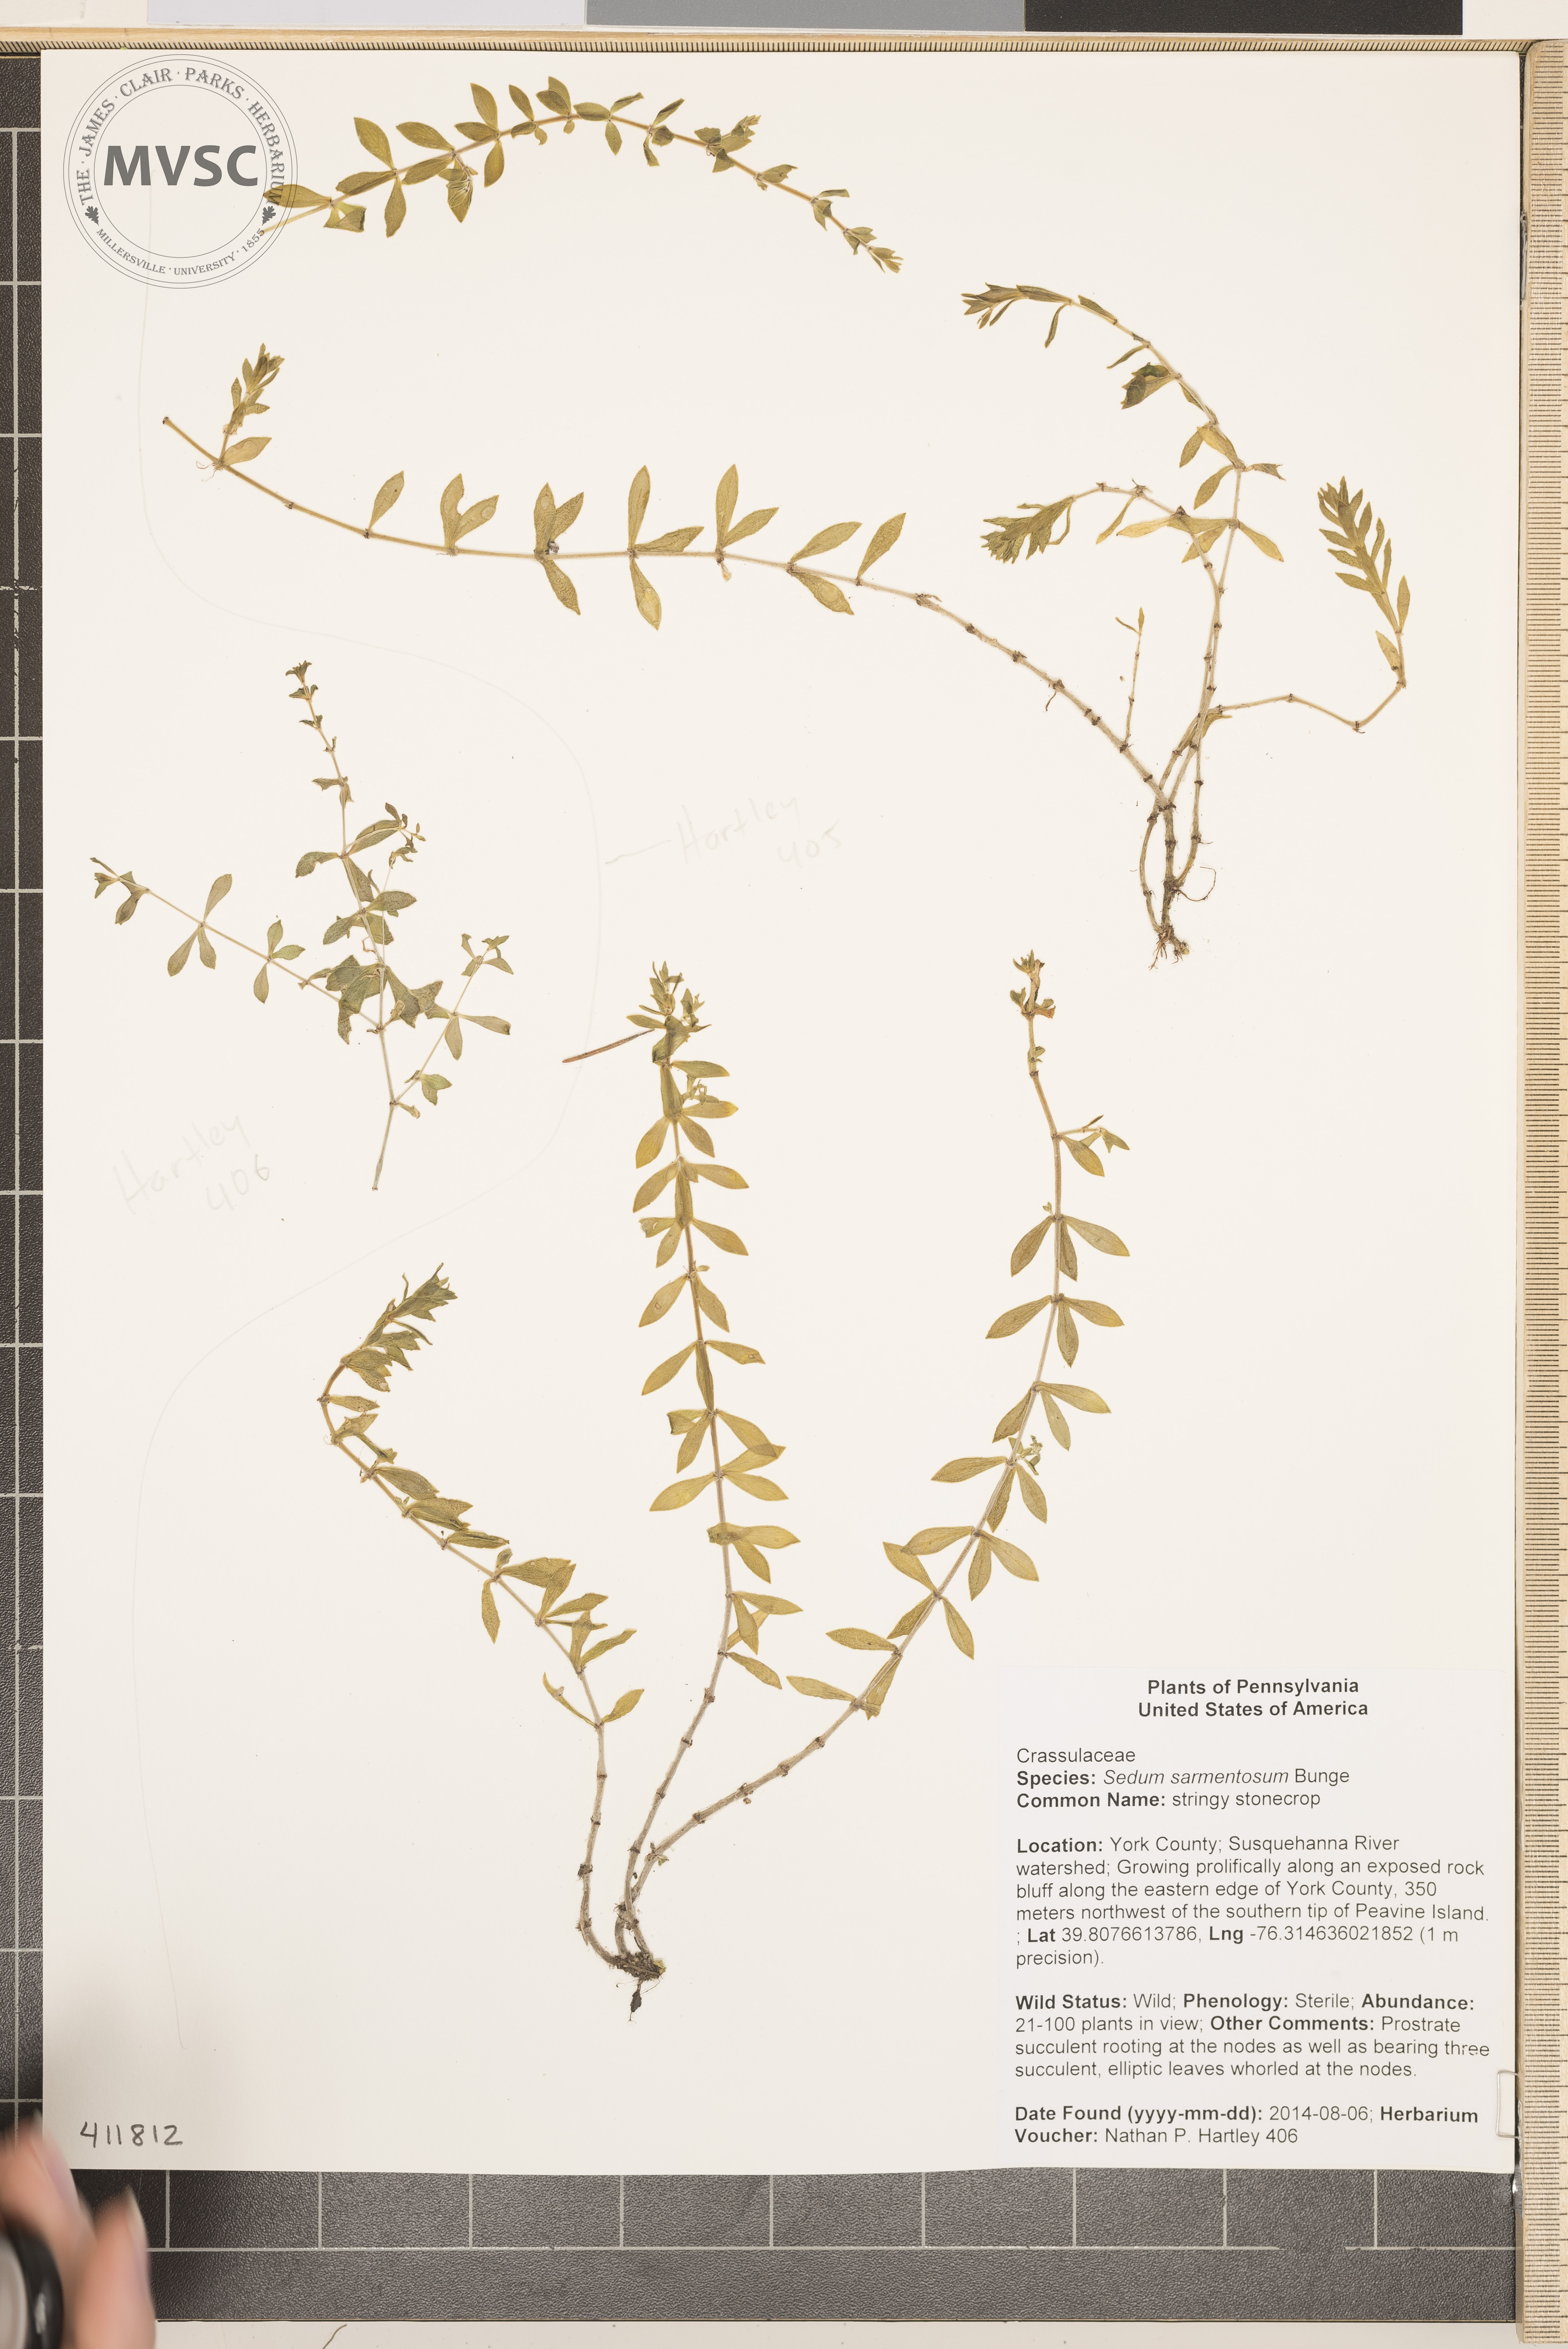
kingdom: Plantae
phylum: Tracheophyta
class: Magnoliopsida
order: Saxifragales
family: Crassulaceae
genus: Sedum
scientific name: Sedum sarmentosum
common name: stringy stonecrop
